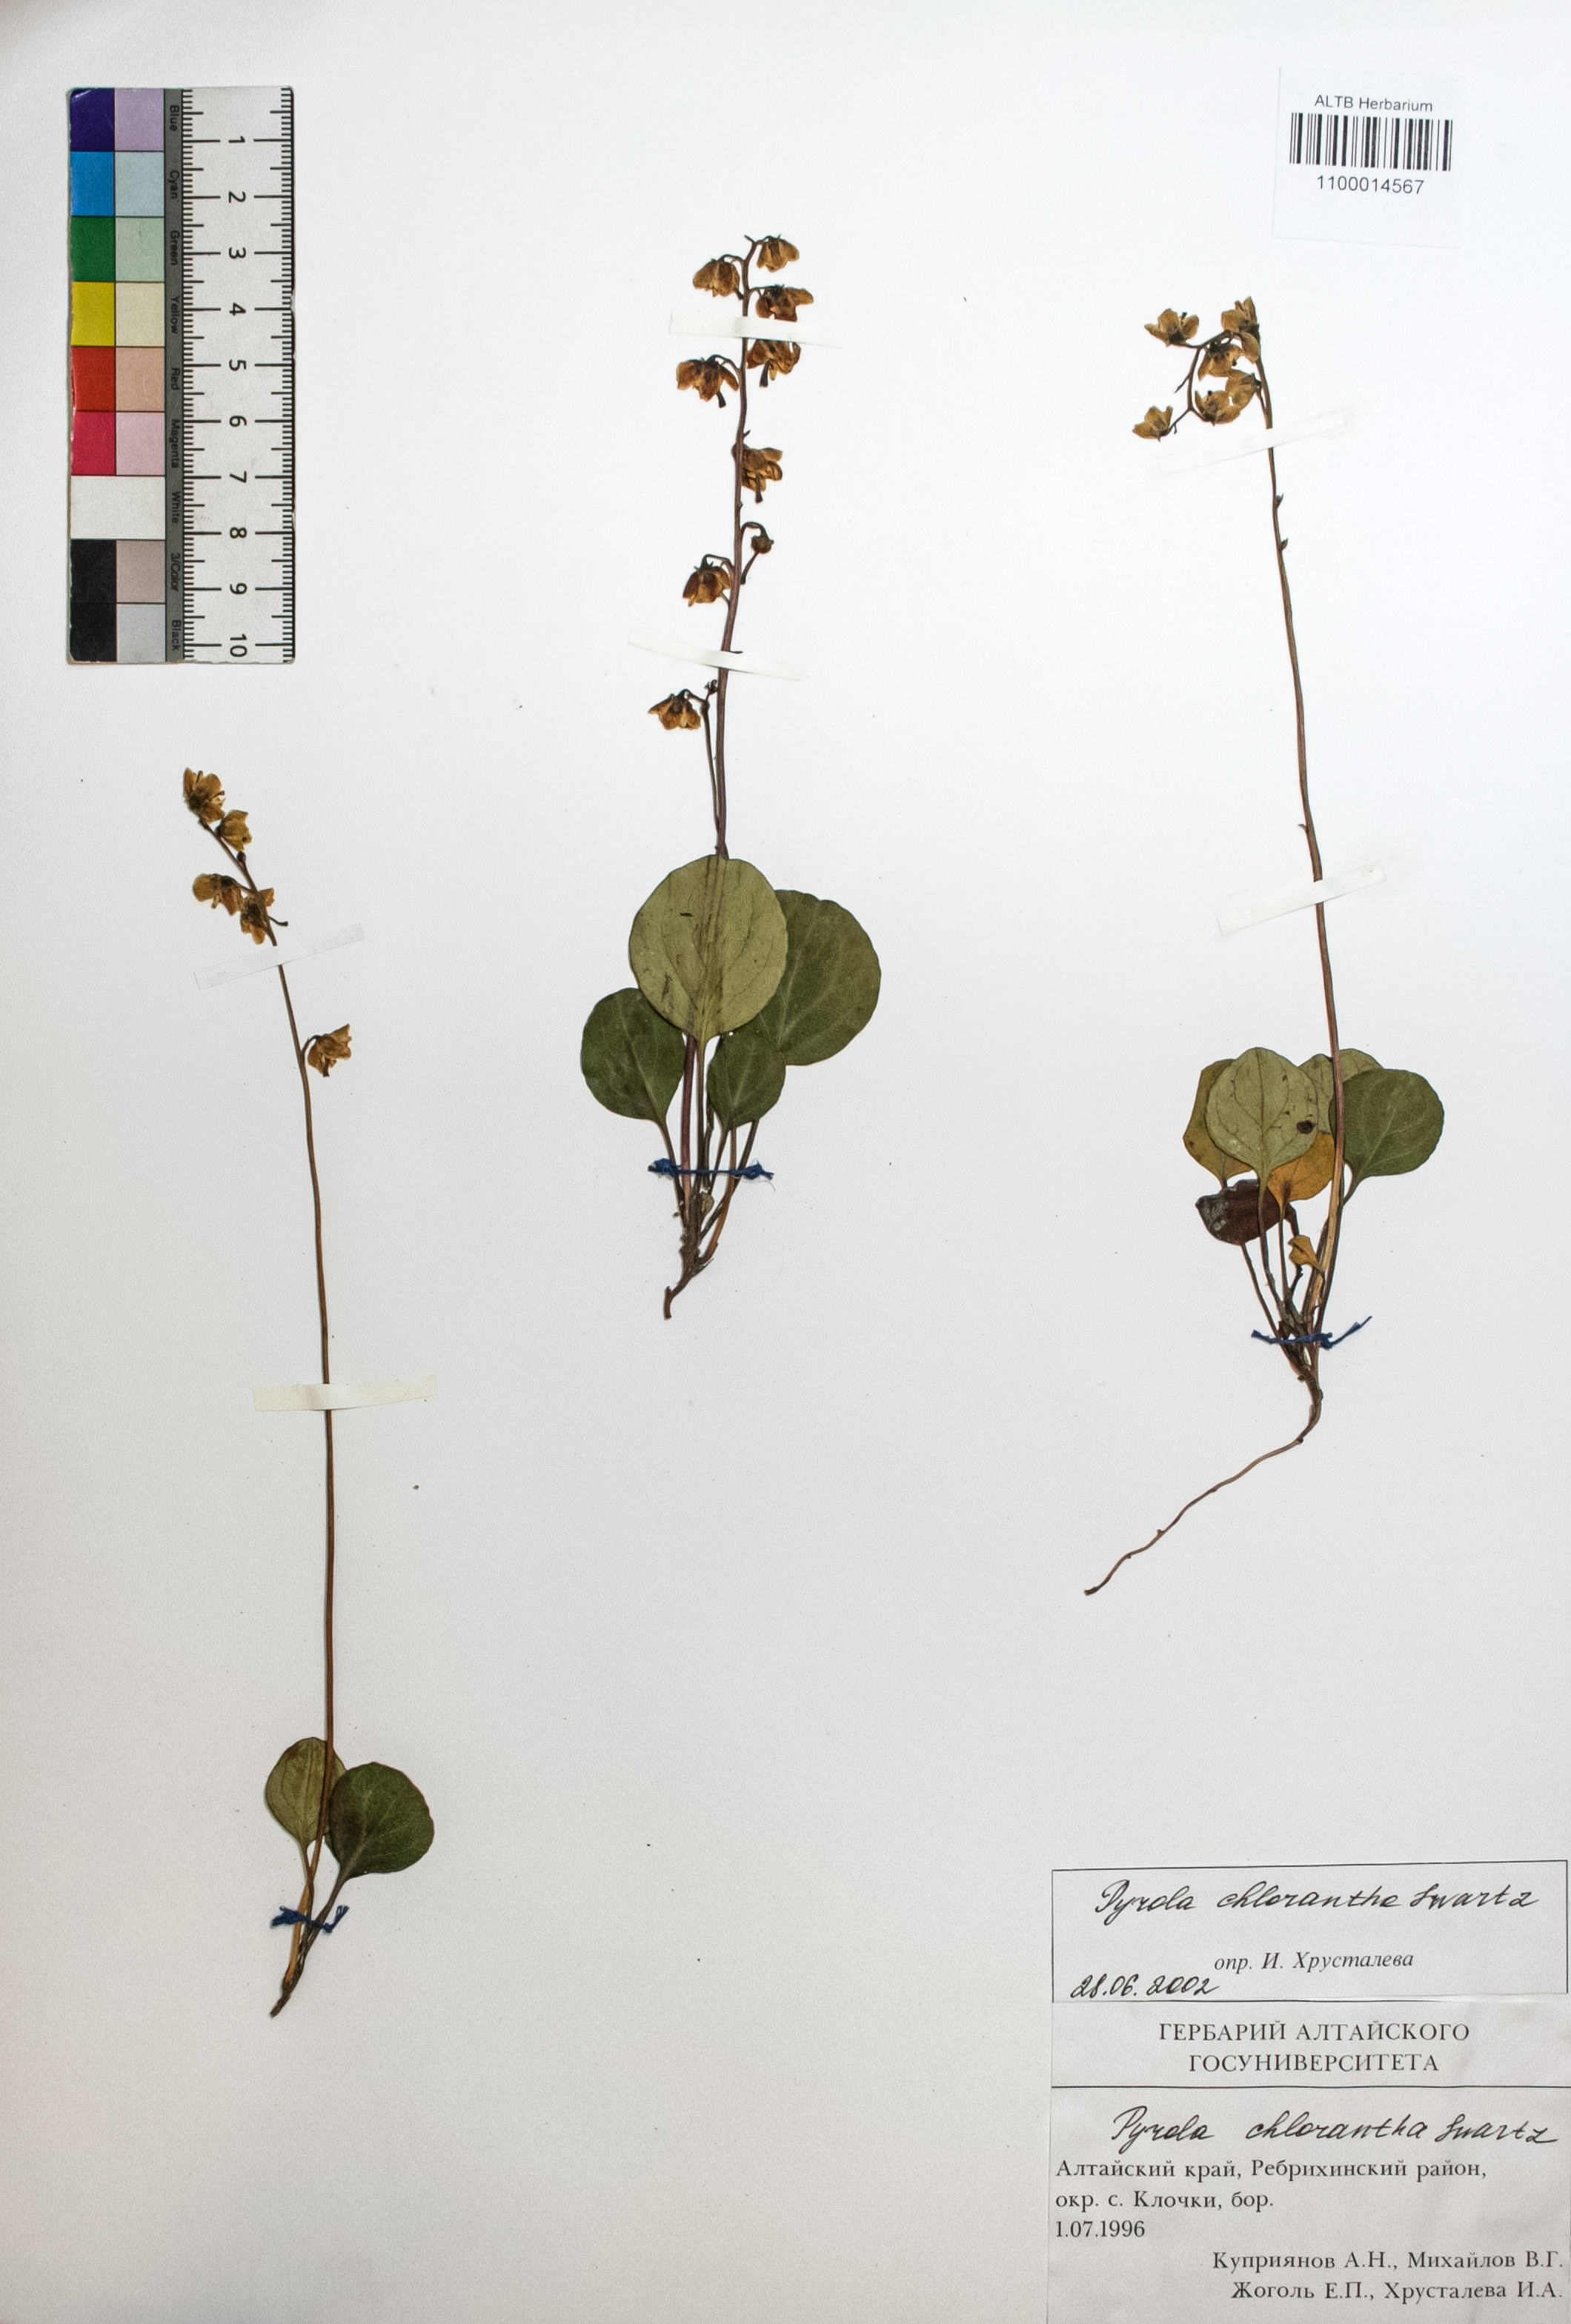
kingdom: Plantae
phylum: Tracheophyta
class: Magnoliopsida
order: Ericales
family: Ericaceae
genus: Pyrola
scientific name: Pyrola chlorantha
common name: Green wintergreen
